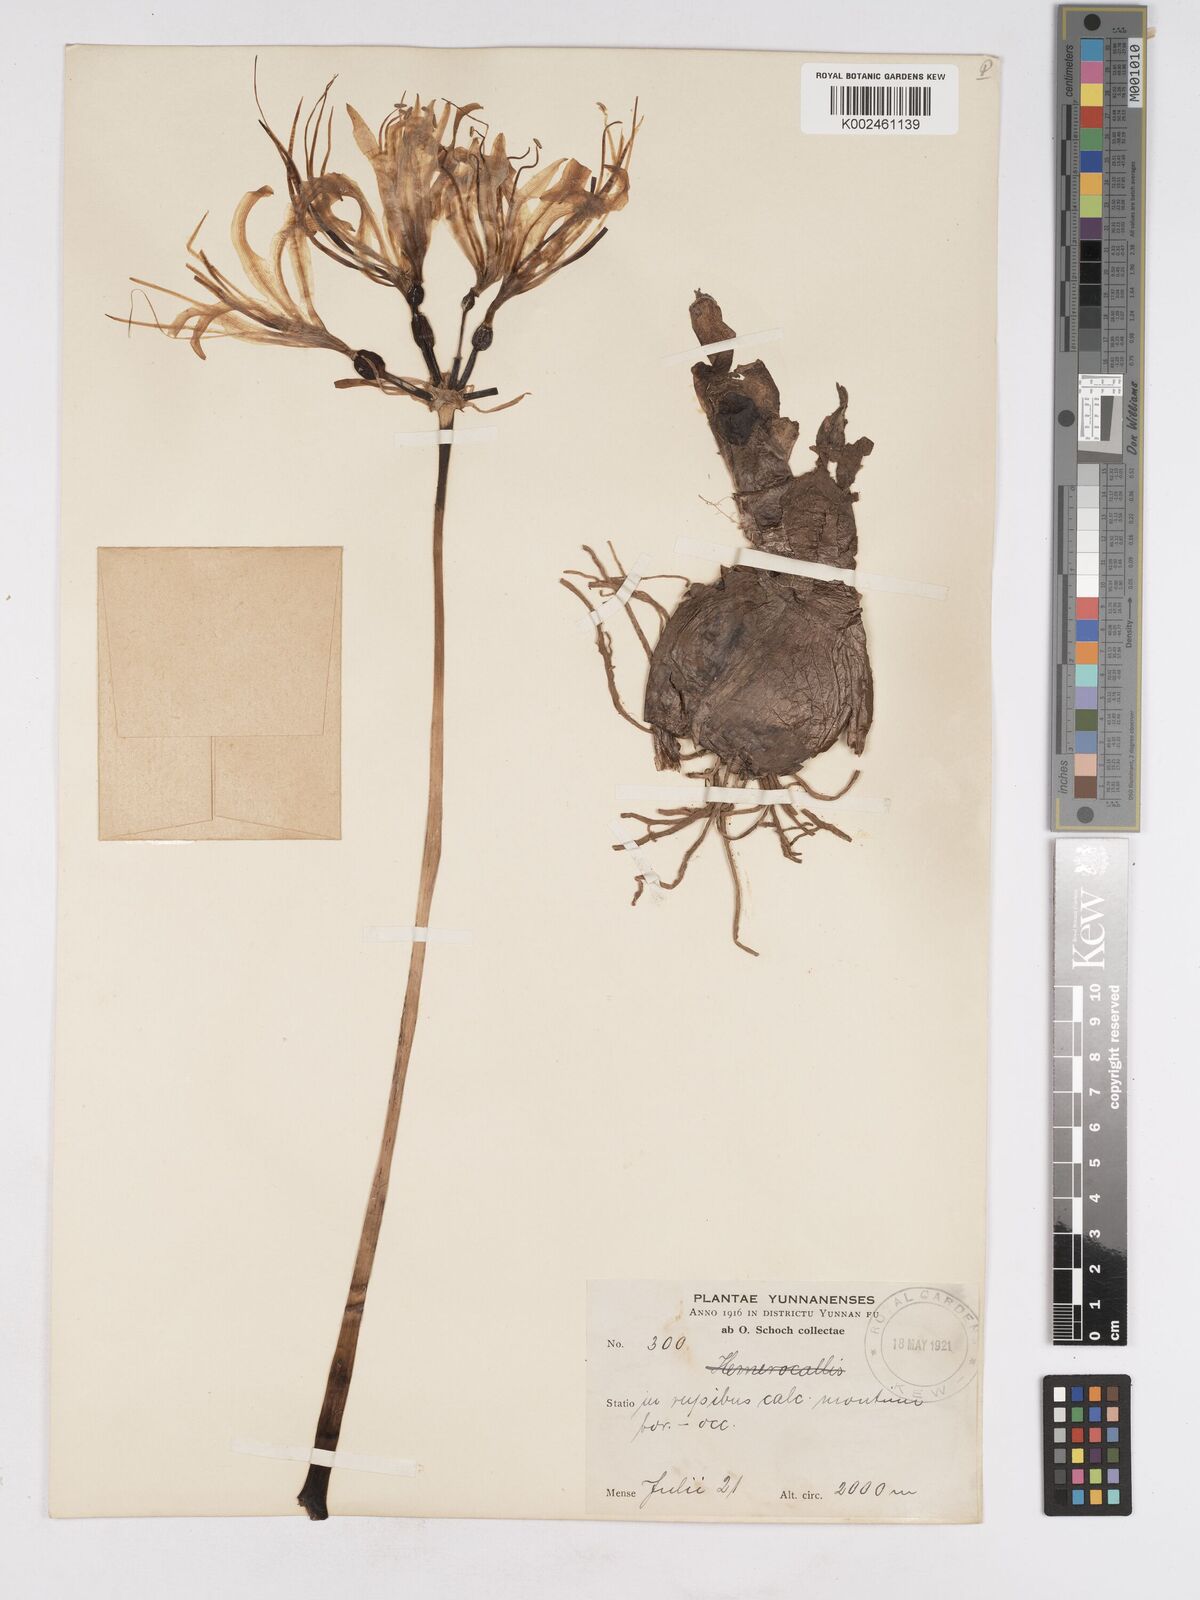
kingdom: Plantae
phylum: Tracheophyta
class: Liliopsida
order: Asparagales
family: Amaryllidaceae
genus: Lycoris
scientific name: Lycoris aurea
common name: Golden hurricane-lily
